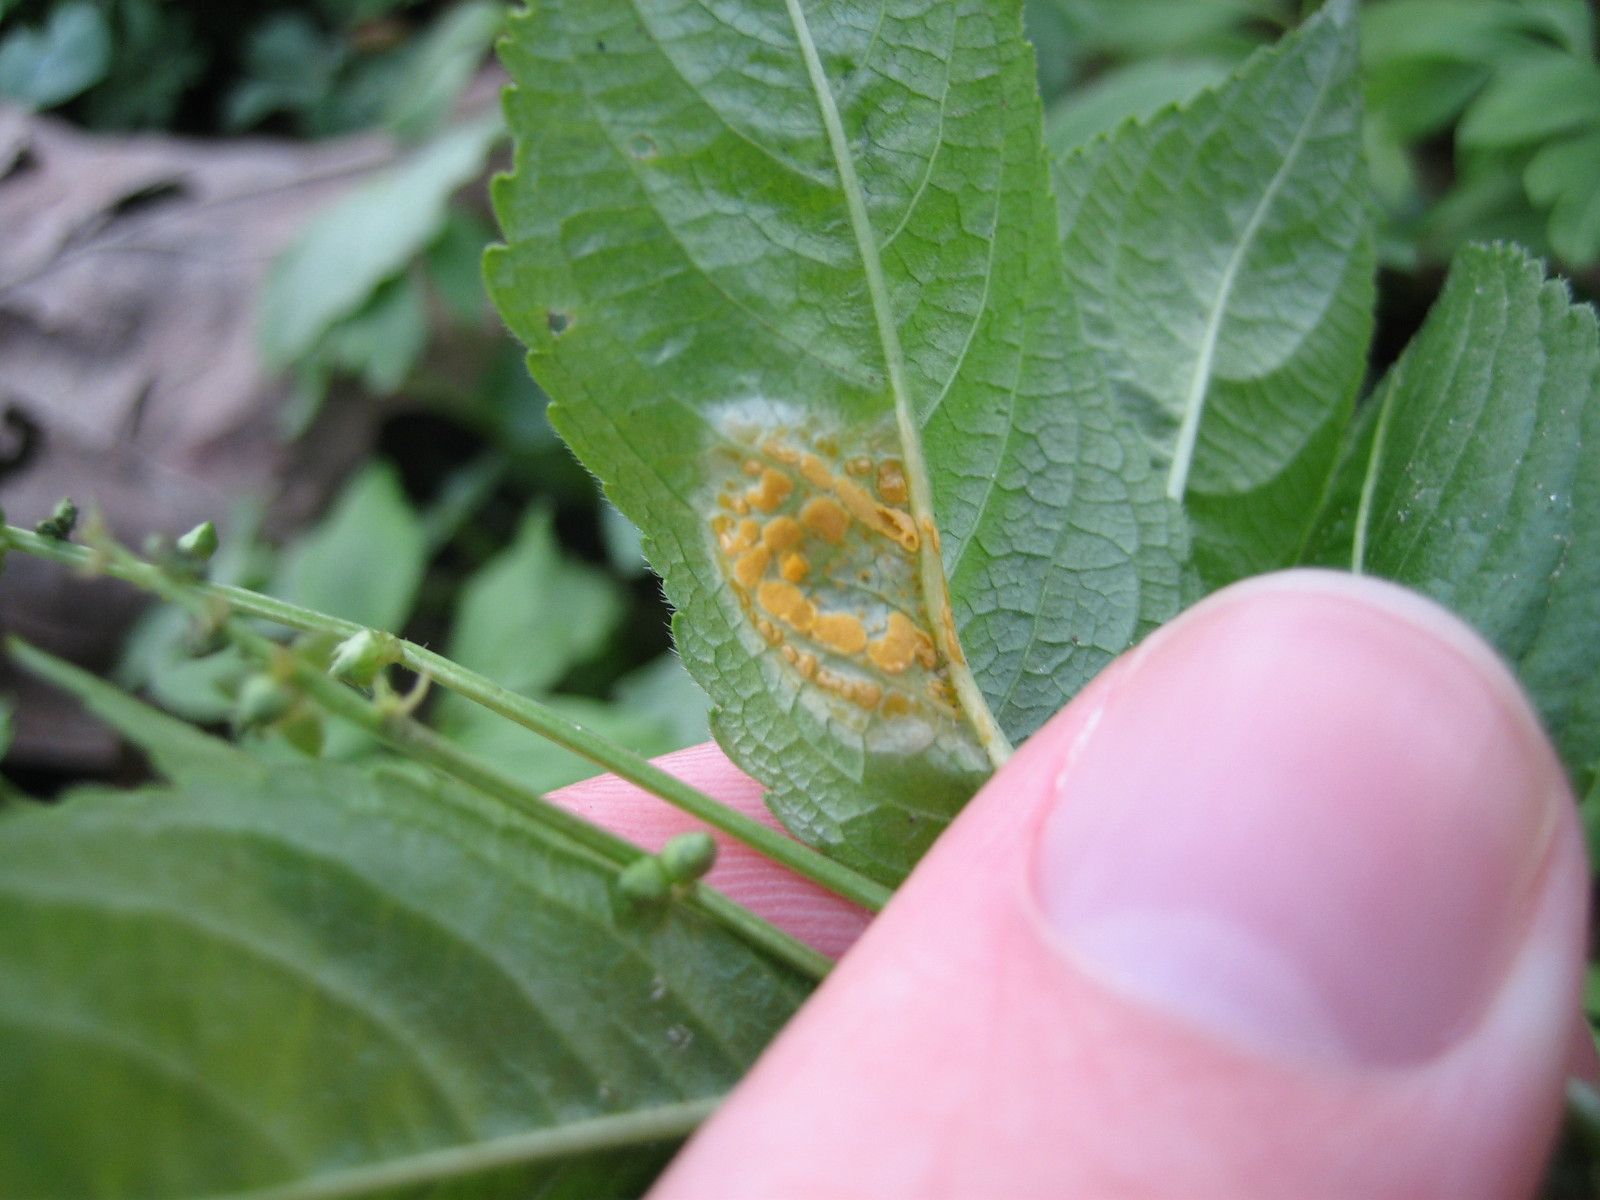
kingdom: Fungi
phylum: Basidiomycota
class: Pucciniomycetes
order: Pucciniales
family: Melampsoraceae
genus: Melampsora
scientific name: Melampsora populnea
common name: poppel-skorperust
